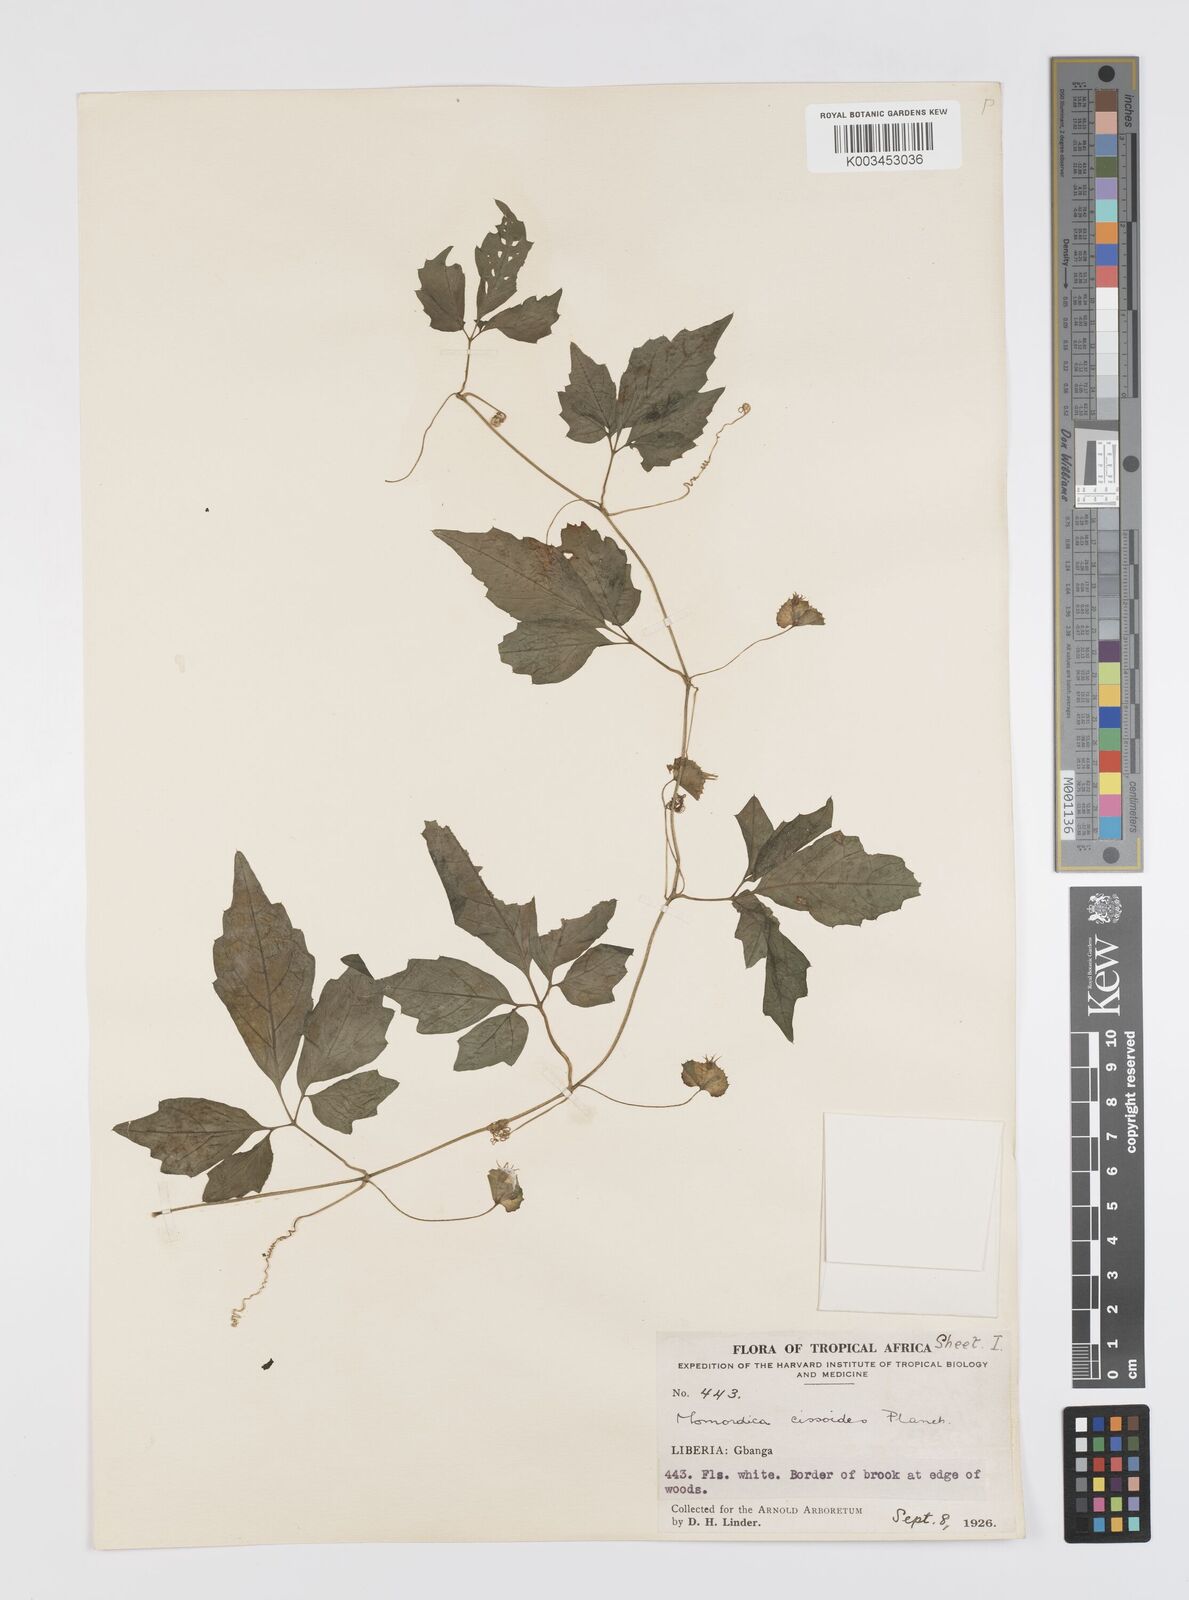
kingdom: Plantae
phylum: Tracheophyta
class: Magnoliopsida
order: Cucurbitales
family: Cucurbitaceae
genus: Momordica
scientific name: Momordica cissoides
